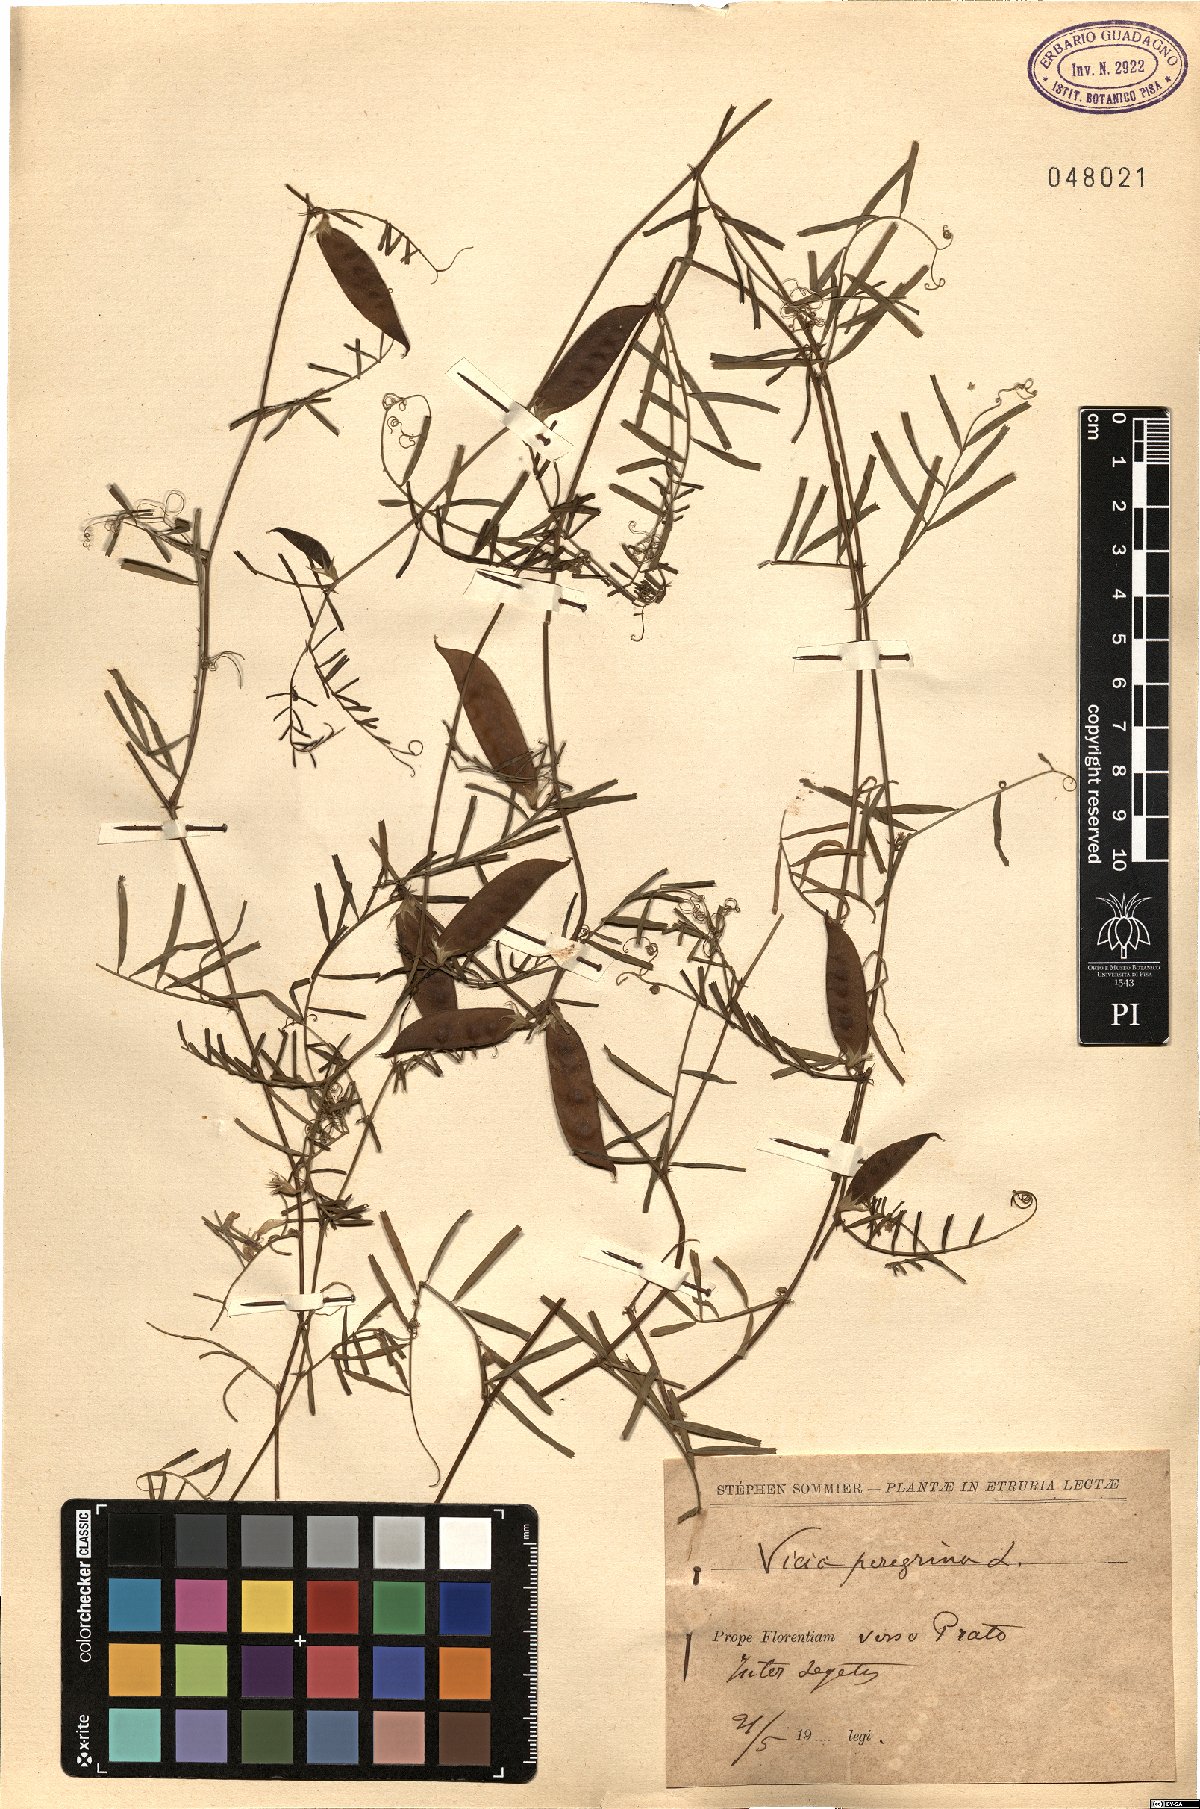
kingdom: Plantae
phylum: Tracheophyta
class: Magnoliopsida
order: Fabales
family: Fabaceae
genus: Vicia
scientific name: Vicia peregrina
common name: Broad-pod vetch
